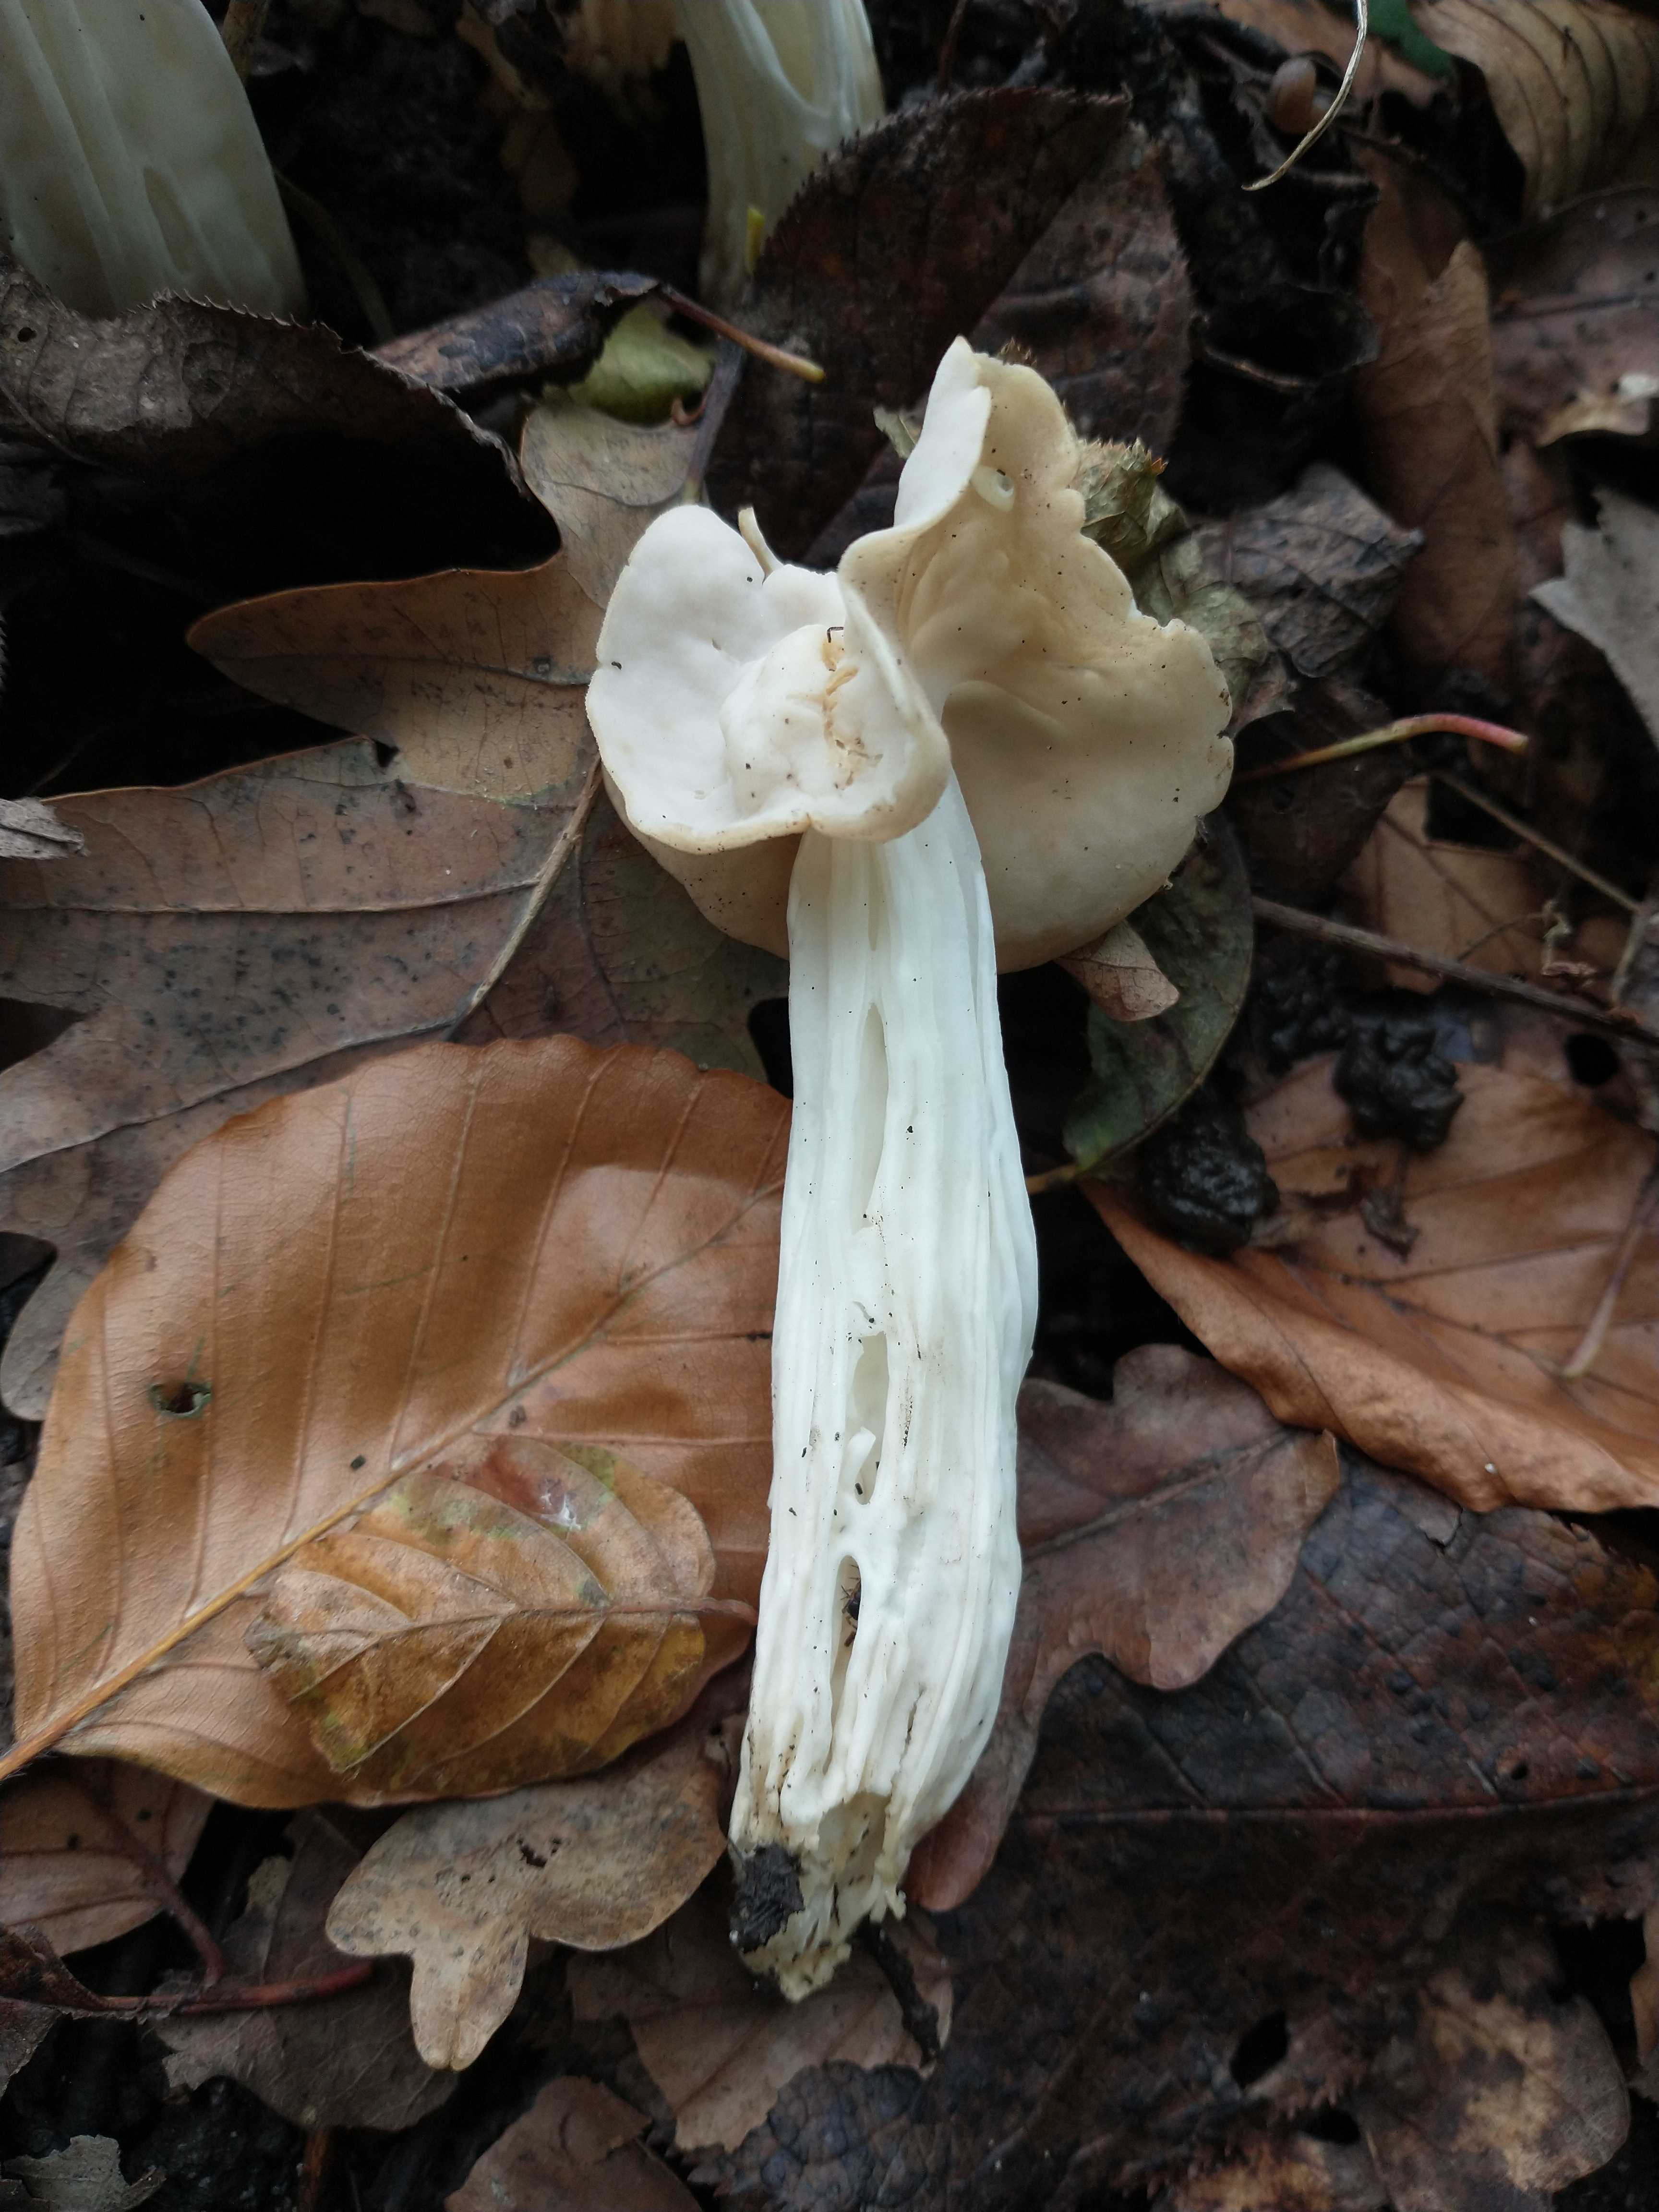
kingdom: Fungi
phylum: Ascomycota
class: Pezizomycetes
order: Pezizales
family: Helvellaceae
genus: Helvella
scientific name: Helvella crispa
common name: kruset foldhat
